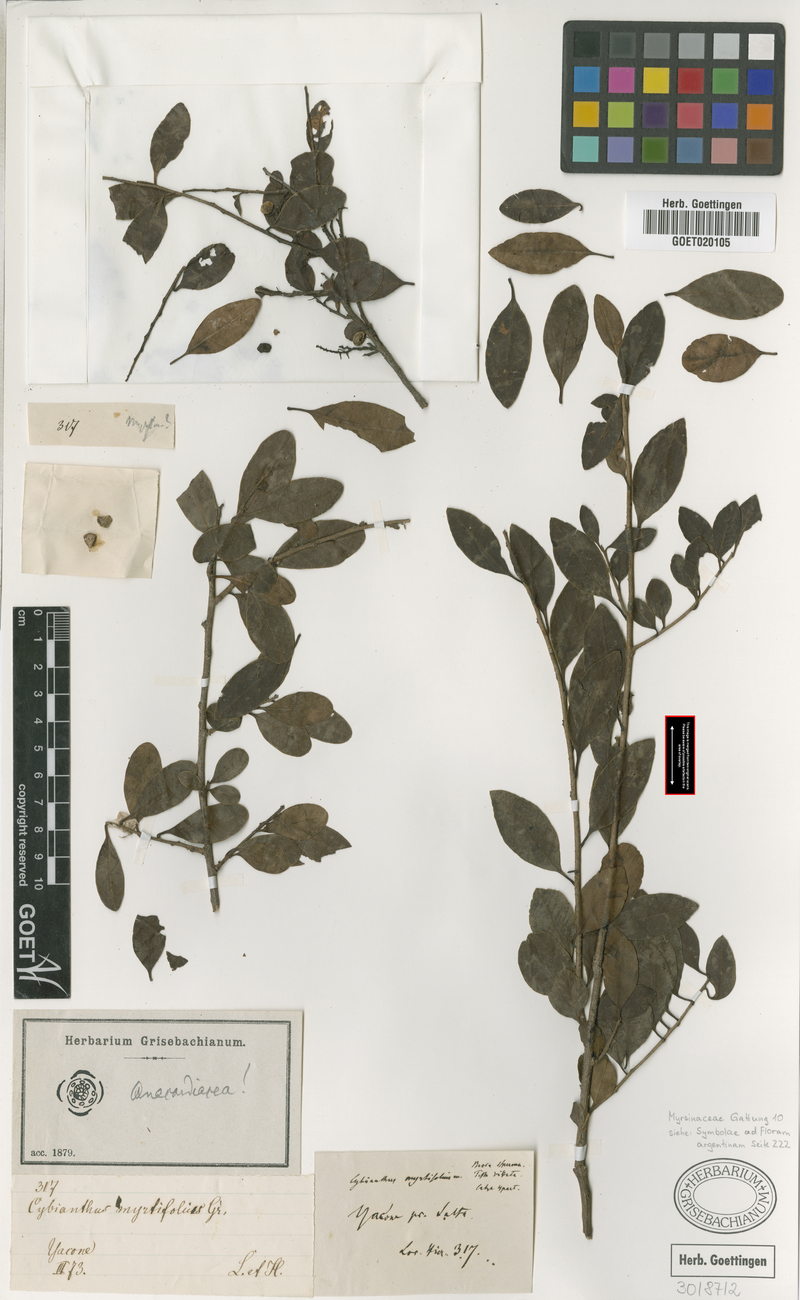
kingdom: Plantae
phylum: Tracheophyta
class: Magnoliopsida
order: Sapindales
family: Anacardiaceae
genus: Schinus
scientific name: Schinus myrtifolia
